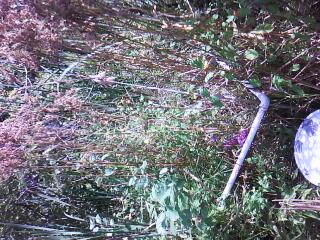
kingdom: Plantae
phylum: Tracheophyta
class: Magnoliopsida
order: Solanales
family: Solanaceae
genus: Solanum
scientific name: Solanum dulcamara
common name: Climbing nightshade
